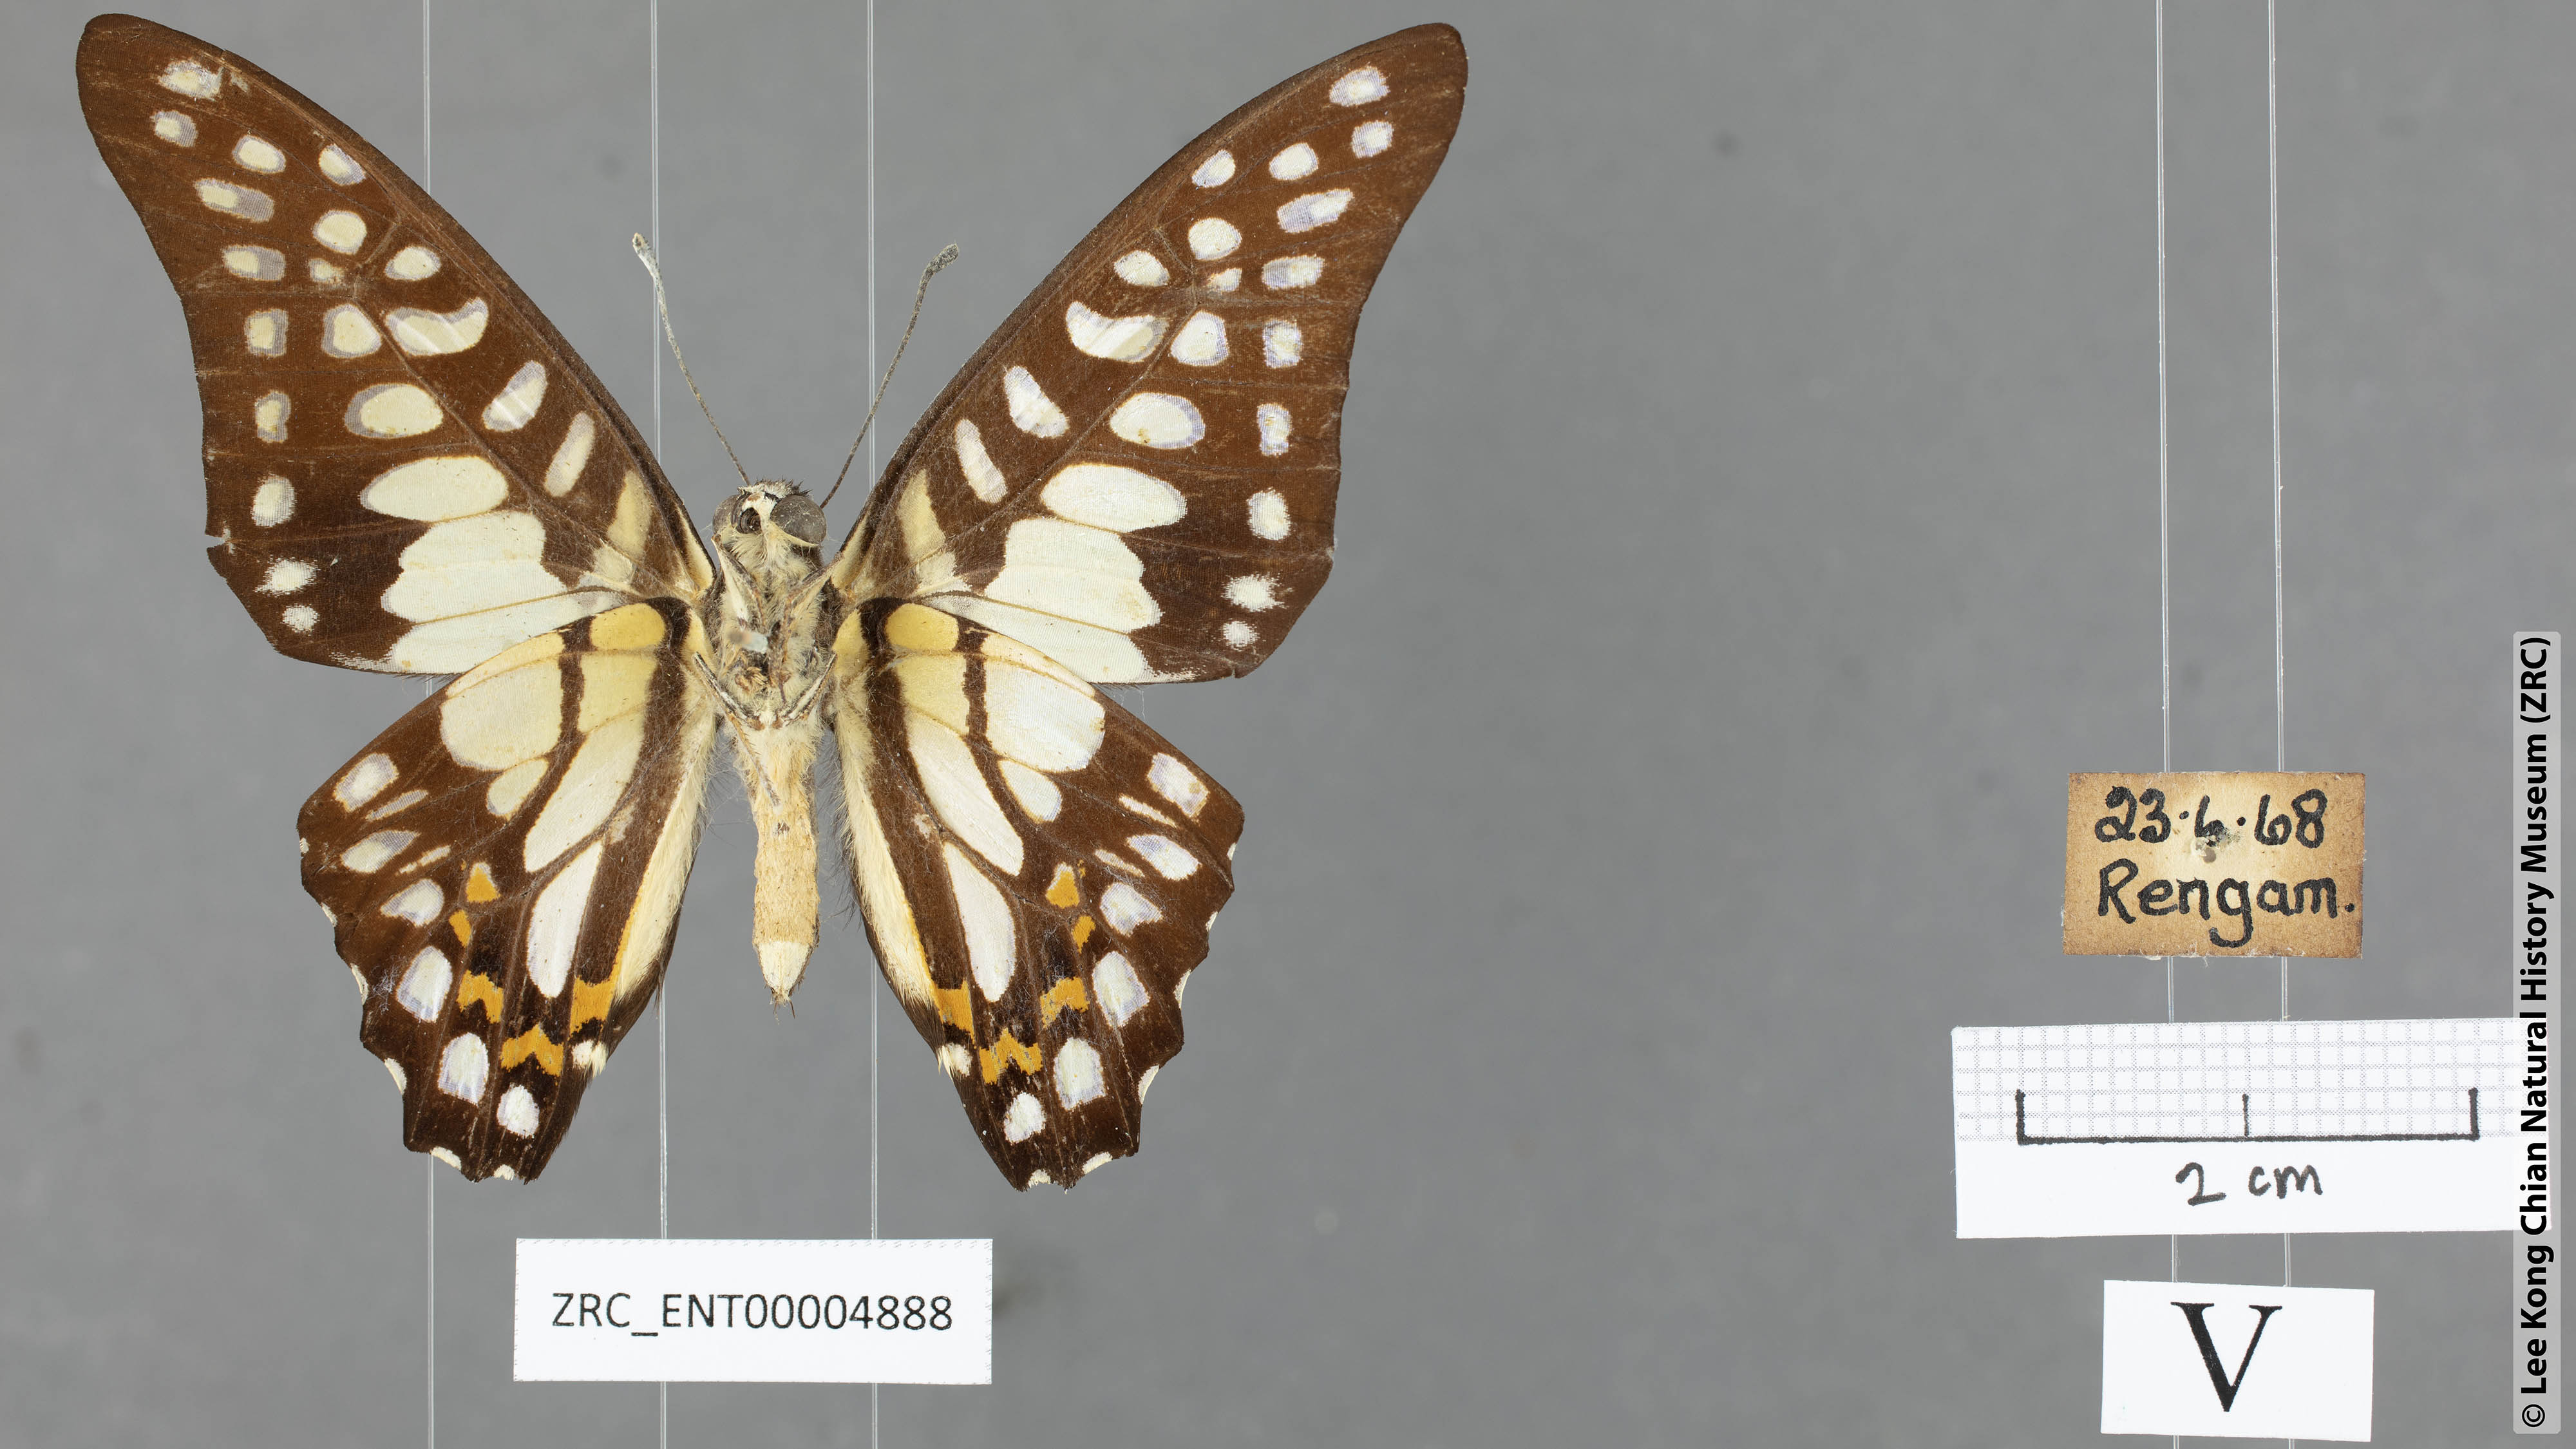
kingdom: Animalia
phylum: Arthropoda
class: Insecta
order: Lepidoptera
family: Papilionidae
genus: Graphium
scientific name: Graphium bathycles
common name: Veined jay
